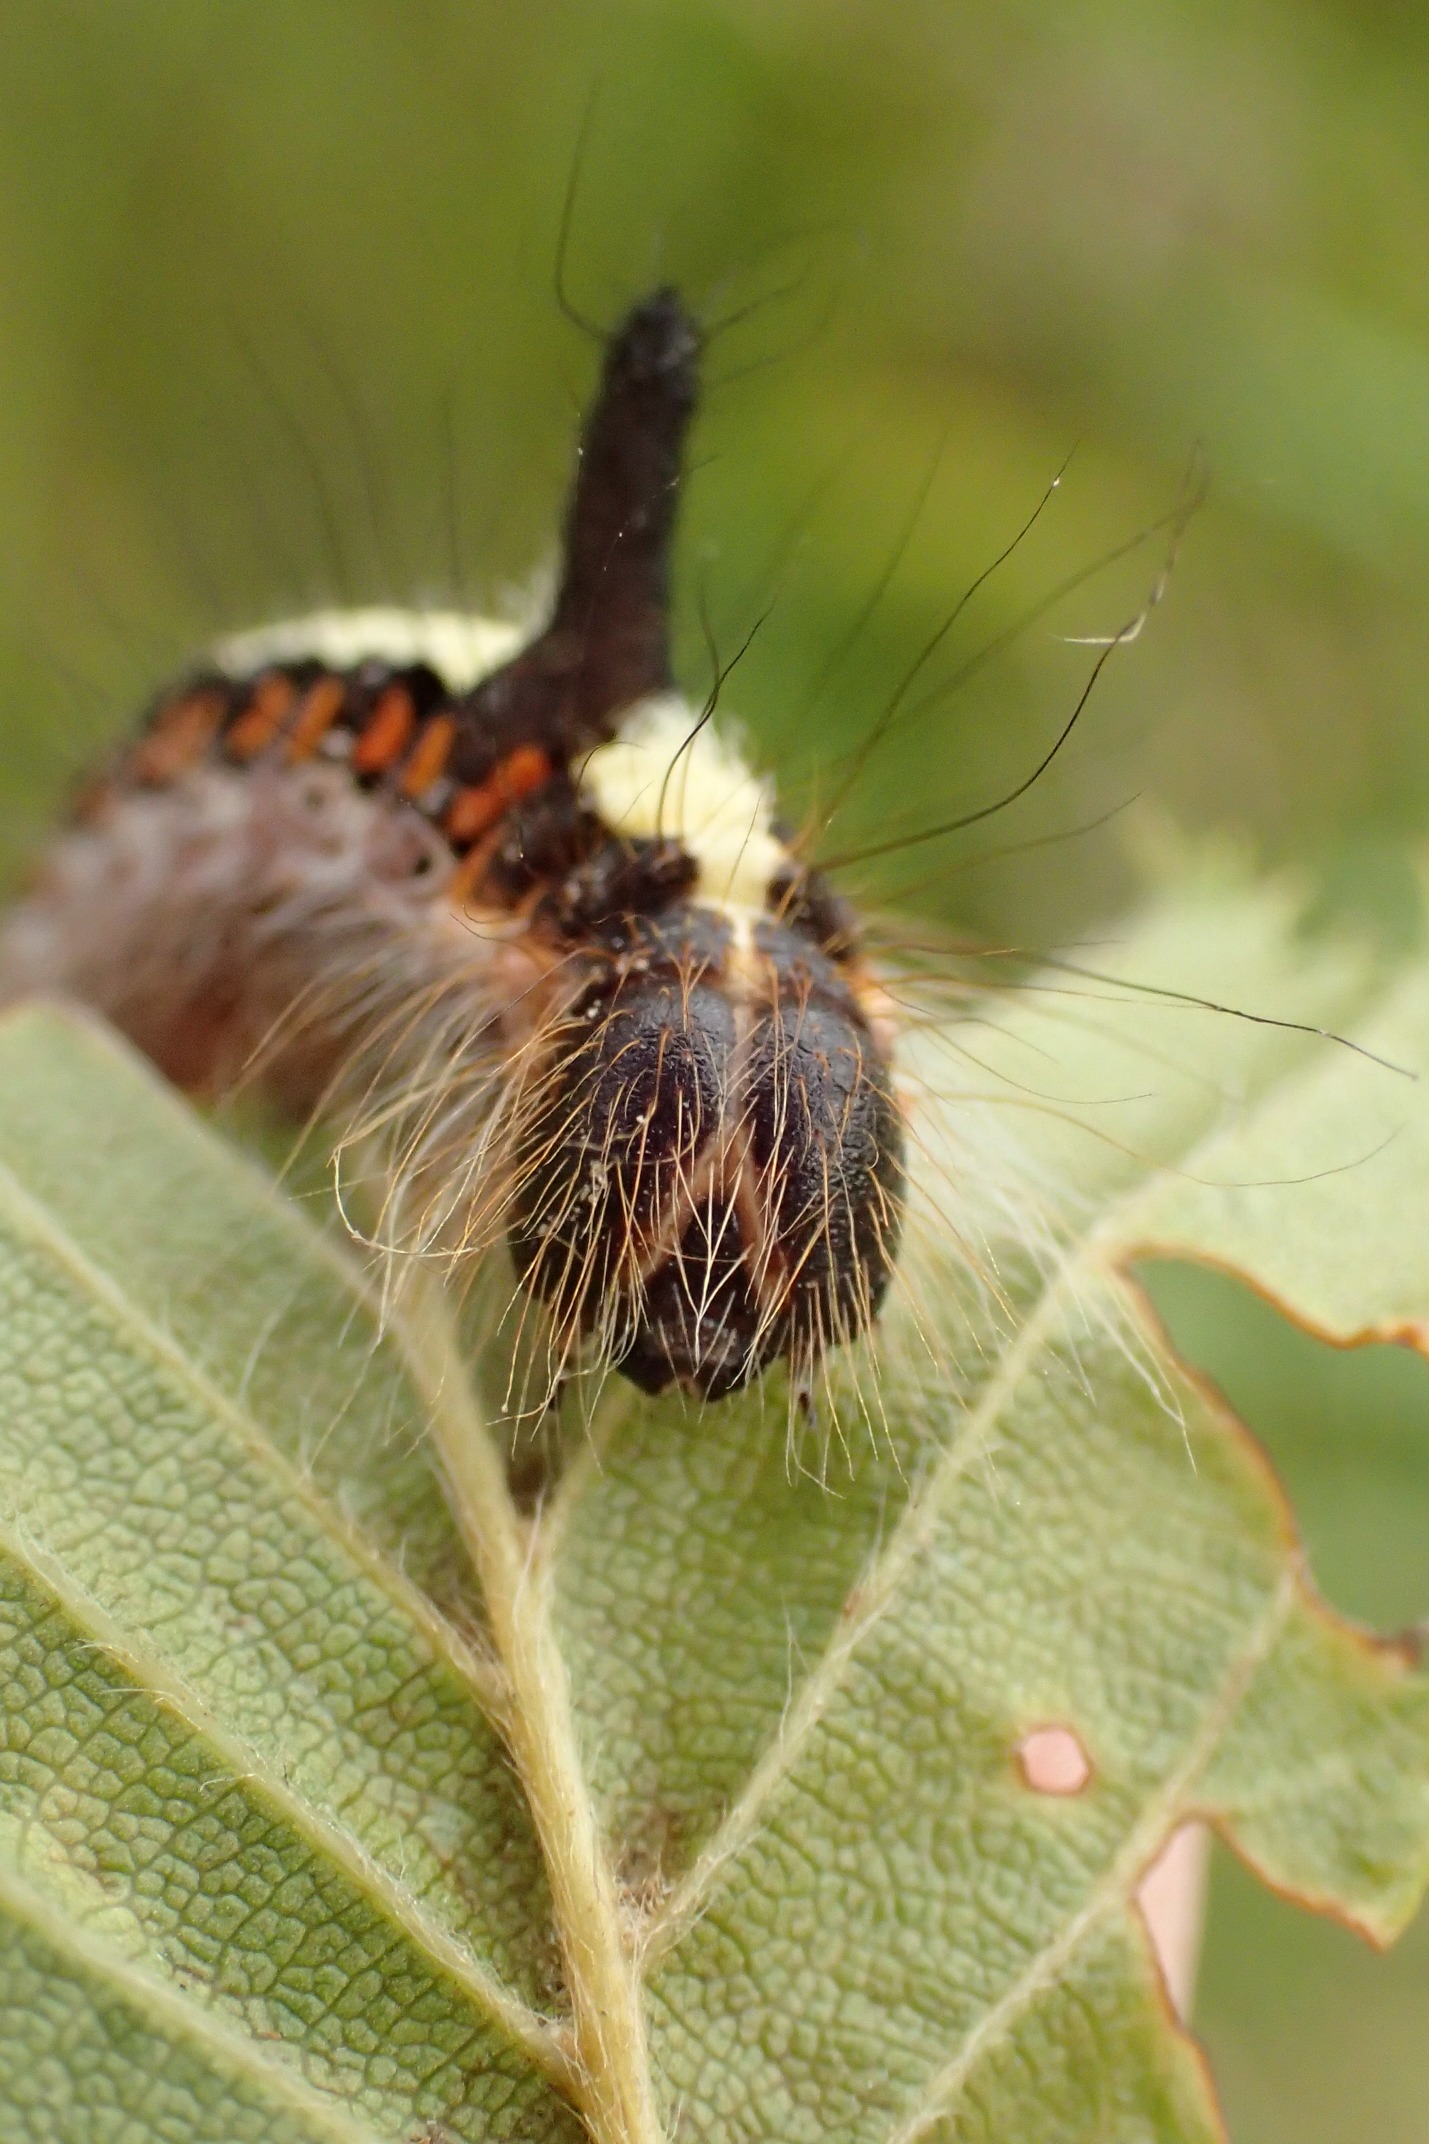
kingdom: Animalia
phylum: Arthropoda
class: Insecta
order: Lepidoptera
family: Noctuidae
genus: Acronicta
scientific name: Acronicta psi
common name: Psi-ugle
